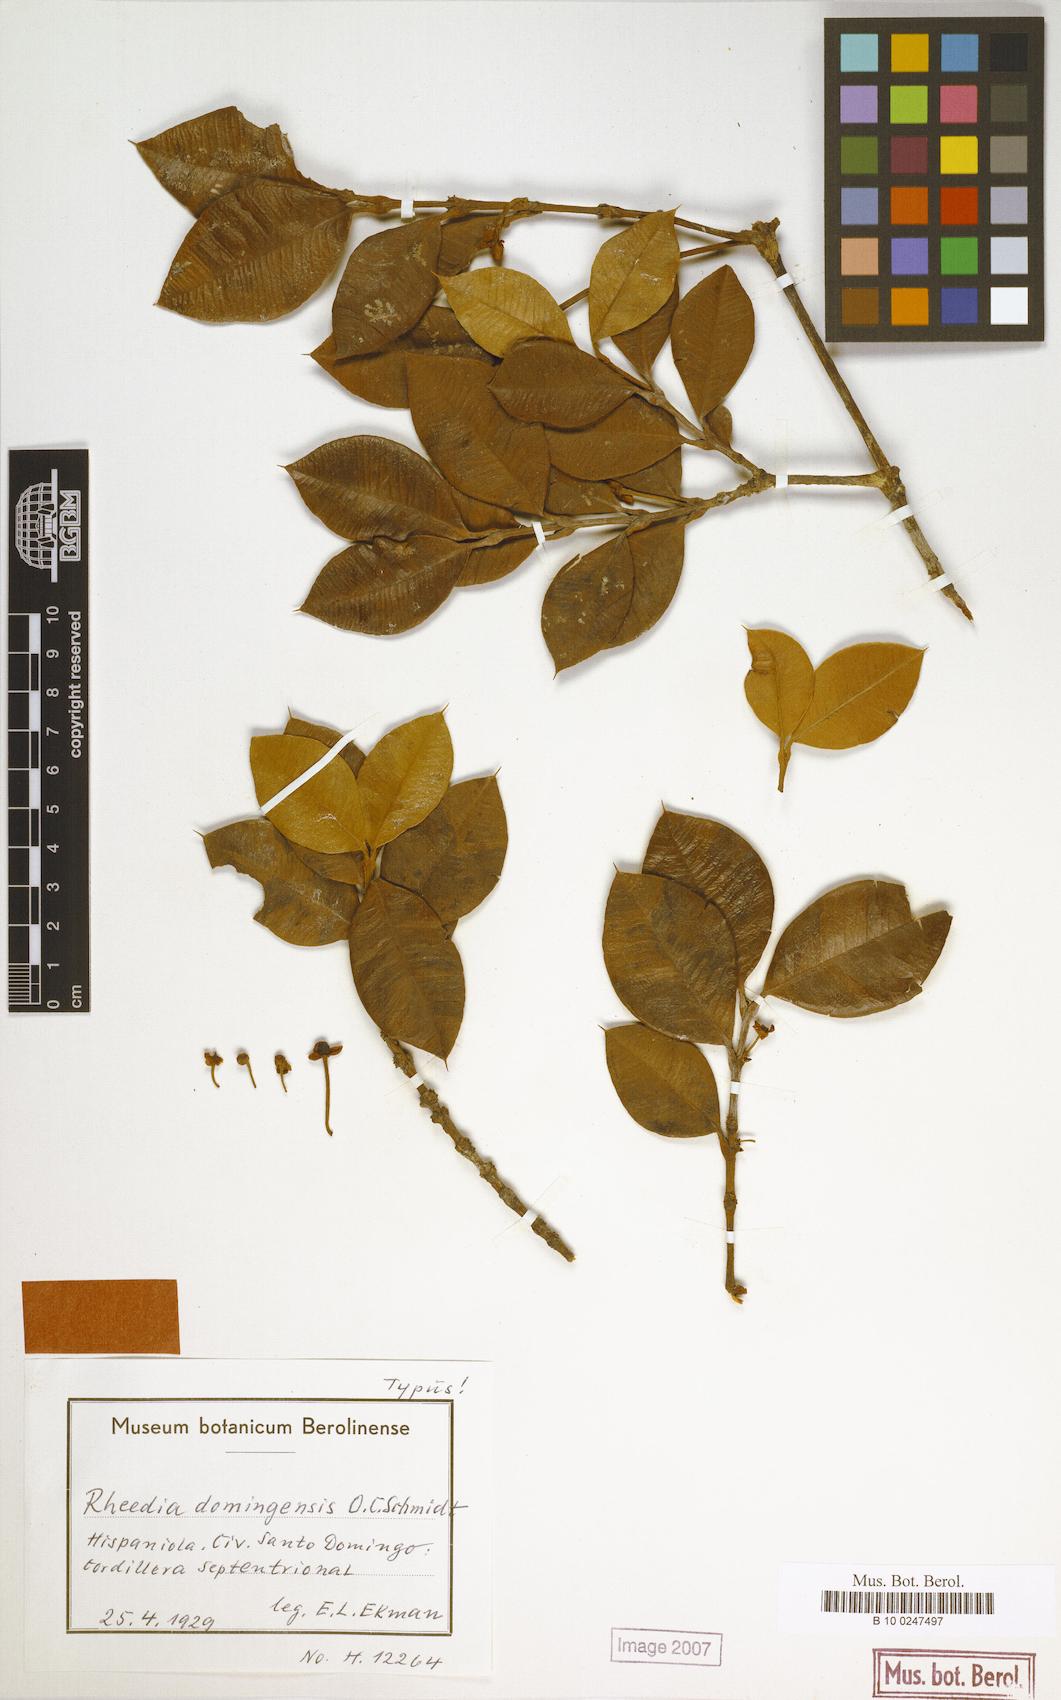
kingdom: Plantae
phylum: Tracheophyta
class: Magnoliopsida
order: Malpighiales
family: Clusiaceae
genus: Garcinia
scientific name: Garcinia
